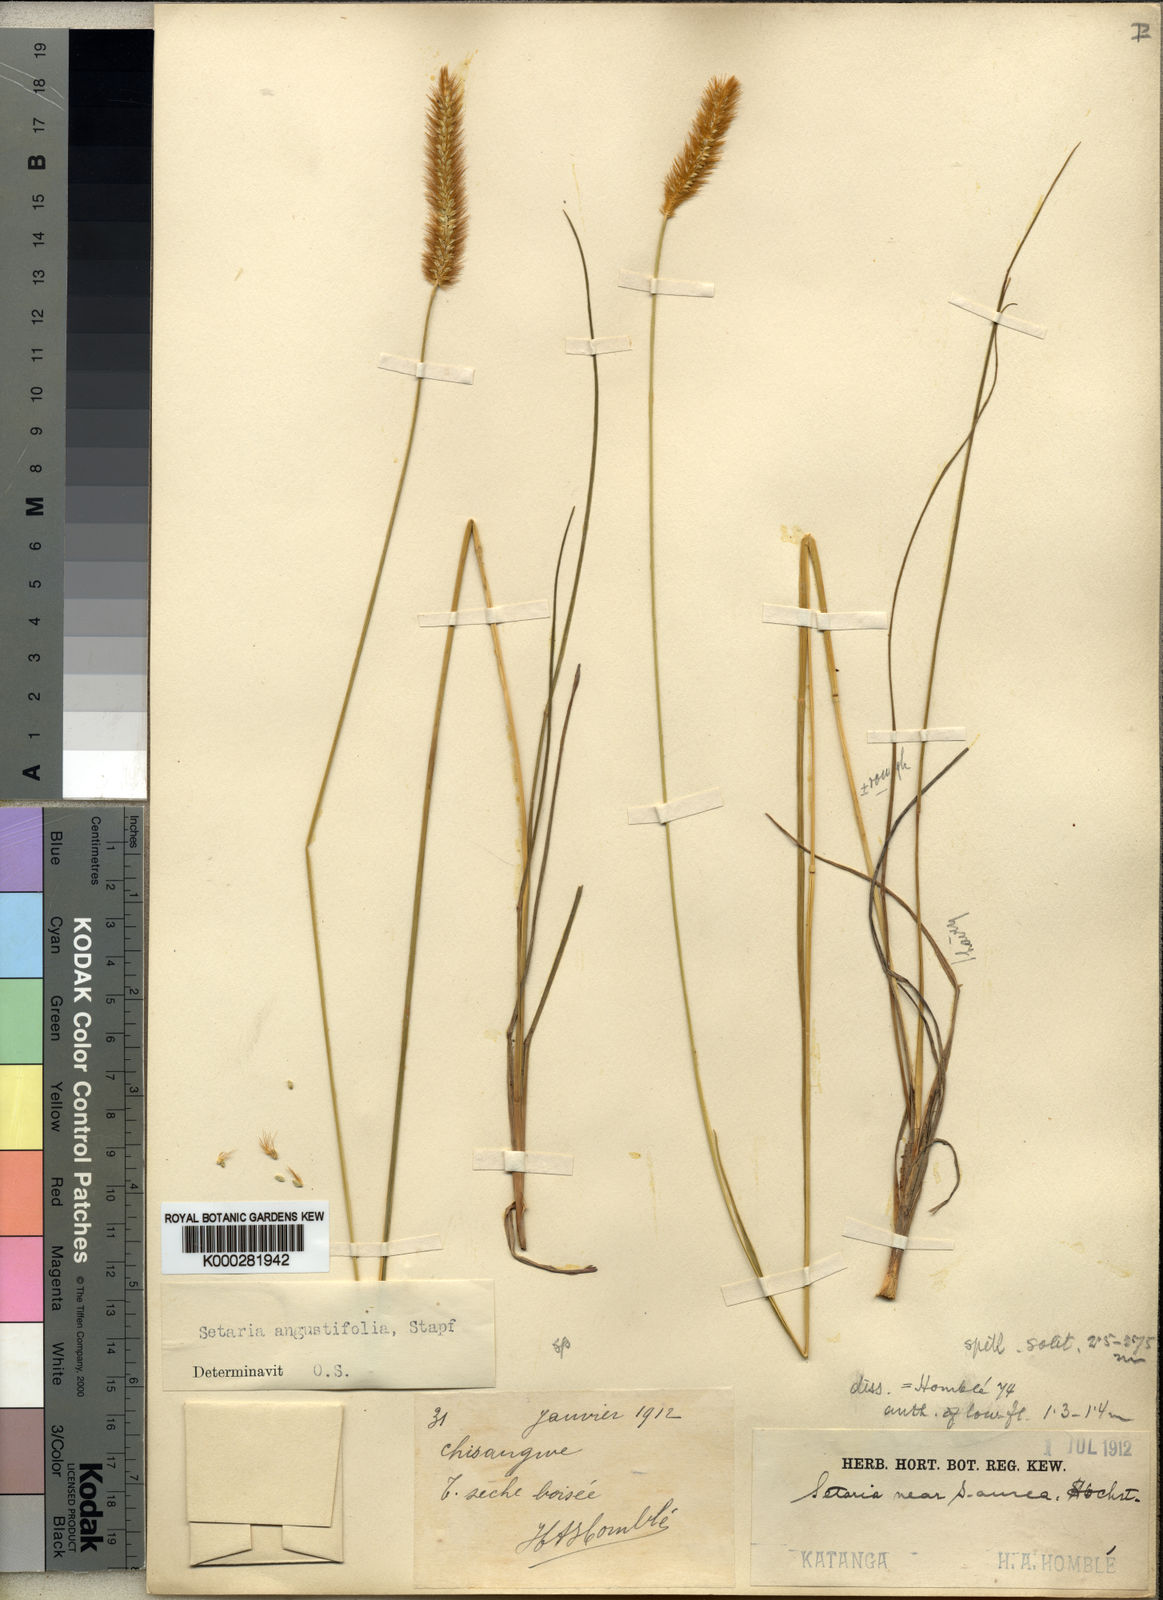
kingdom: Plantae
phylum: Tracheophyta
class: Liliopsida
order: Poales
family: Poaceae
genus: Setaria
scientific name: Setaria sphacelata
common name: African bristlegrass
